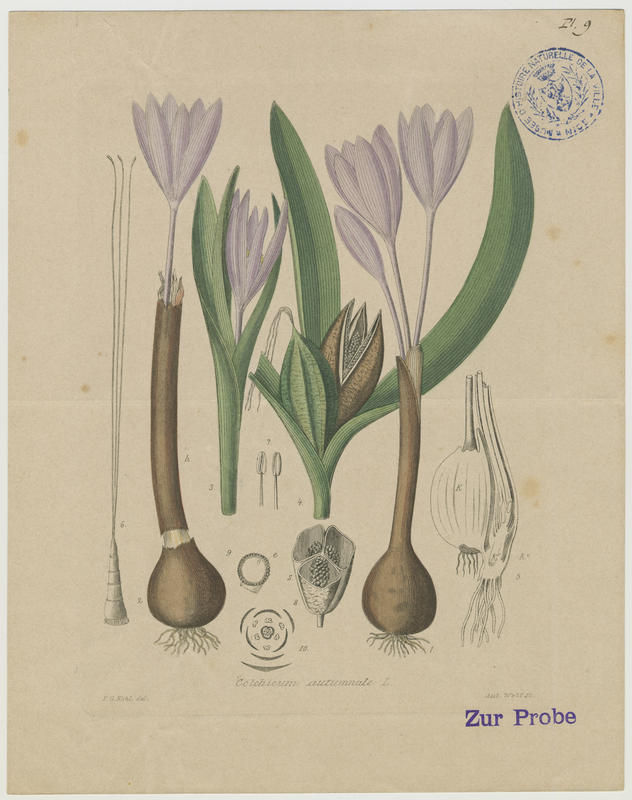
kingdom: Plantae
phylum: Tracheophyta
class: Liliopsida
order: Liliales
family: Colchicaceae
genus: Colchicum
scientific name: Colchicum autumnale
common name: Autumn crocus
